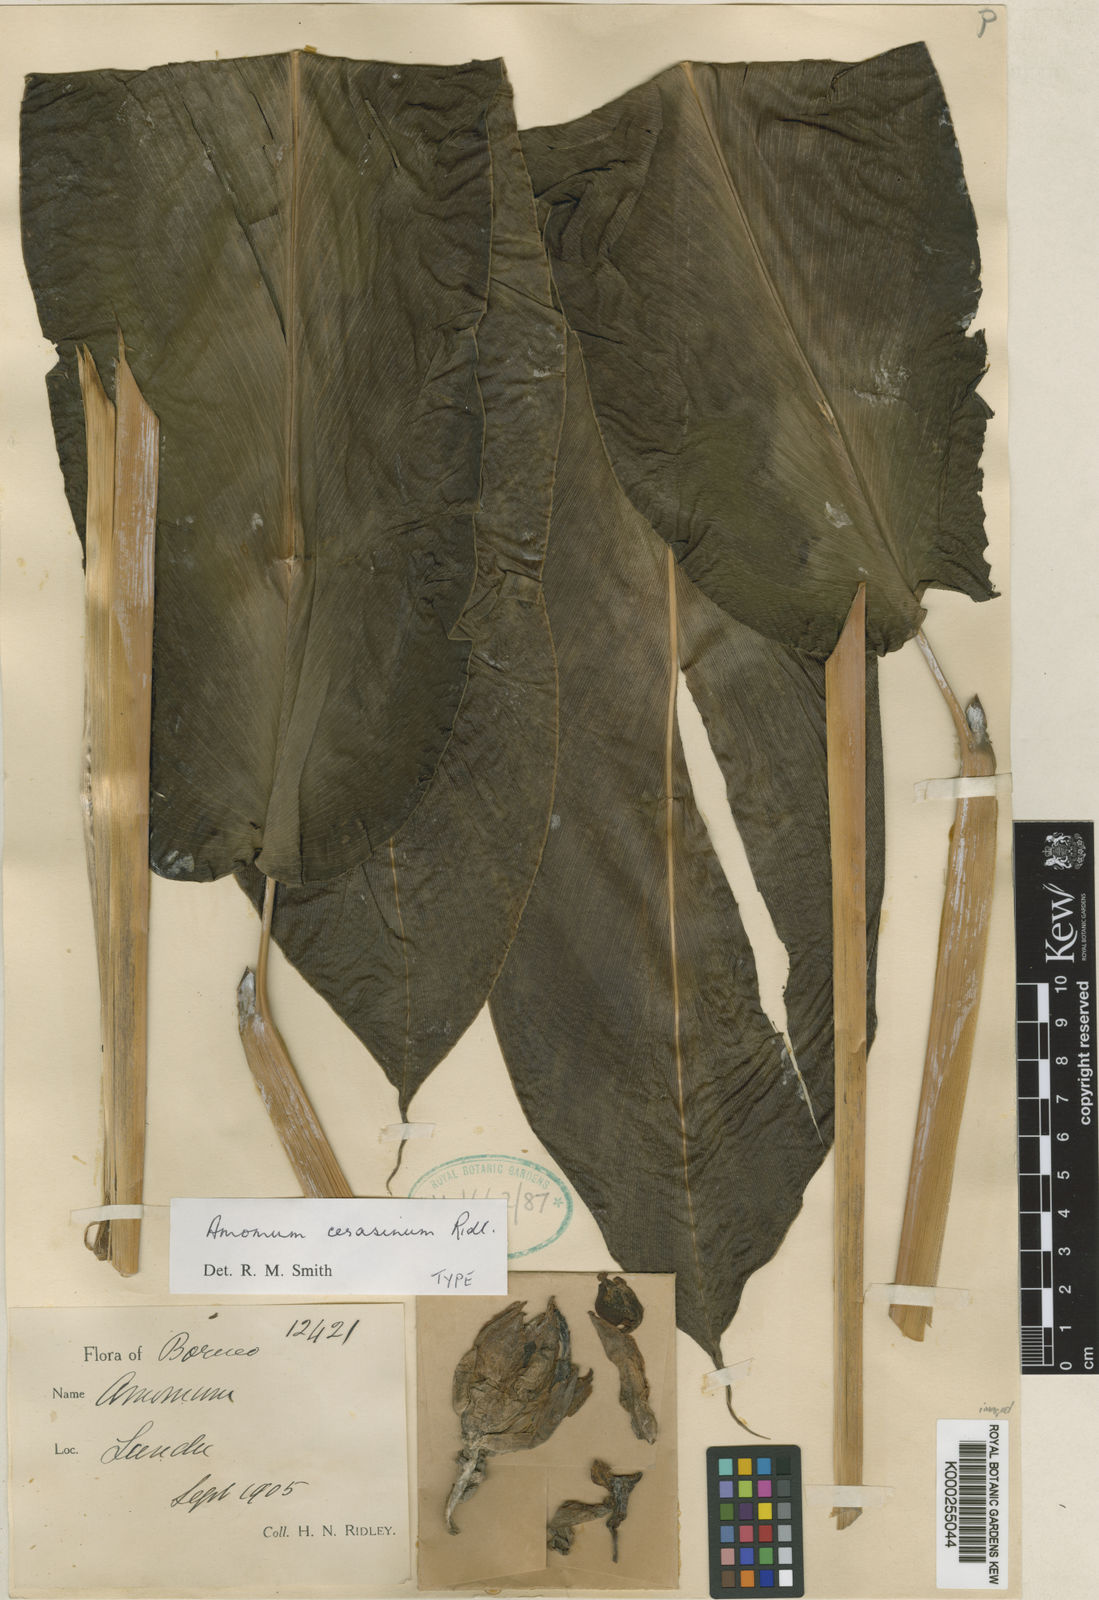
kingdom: Plantae
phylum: Tracheophyta
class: Liliopsida
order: Zingiberales
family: Zingiberaceae
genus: Meistera
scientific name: Meistera cerasina
